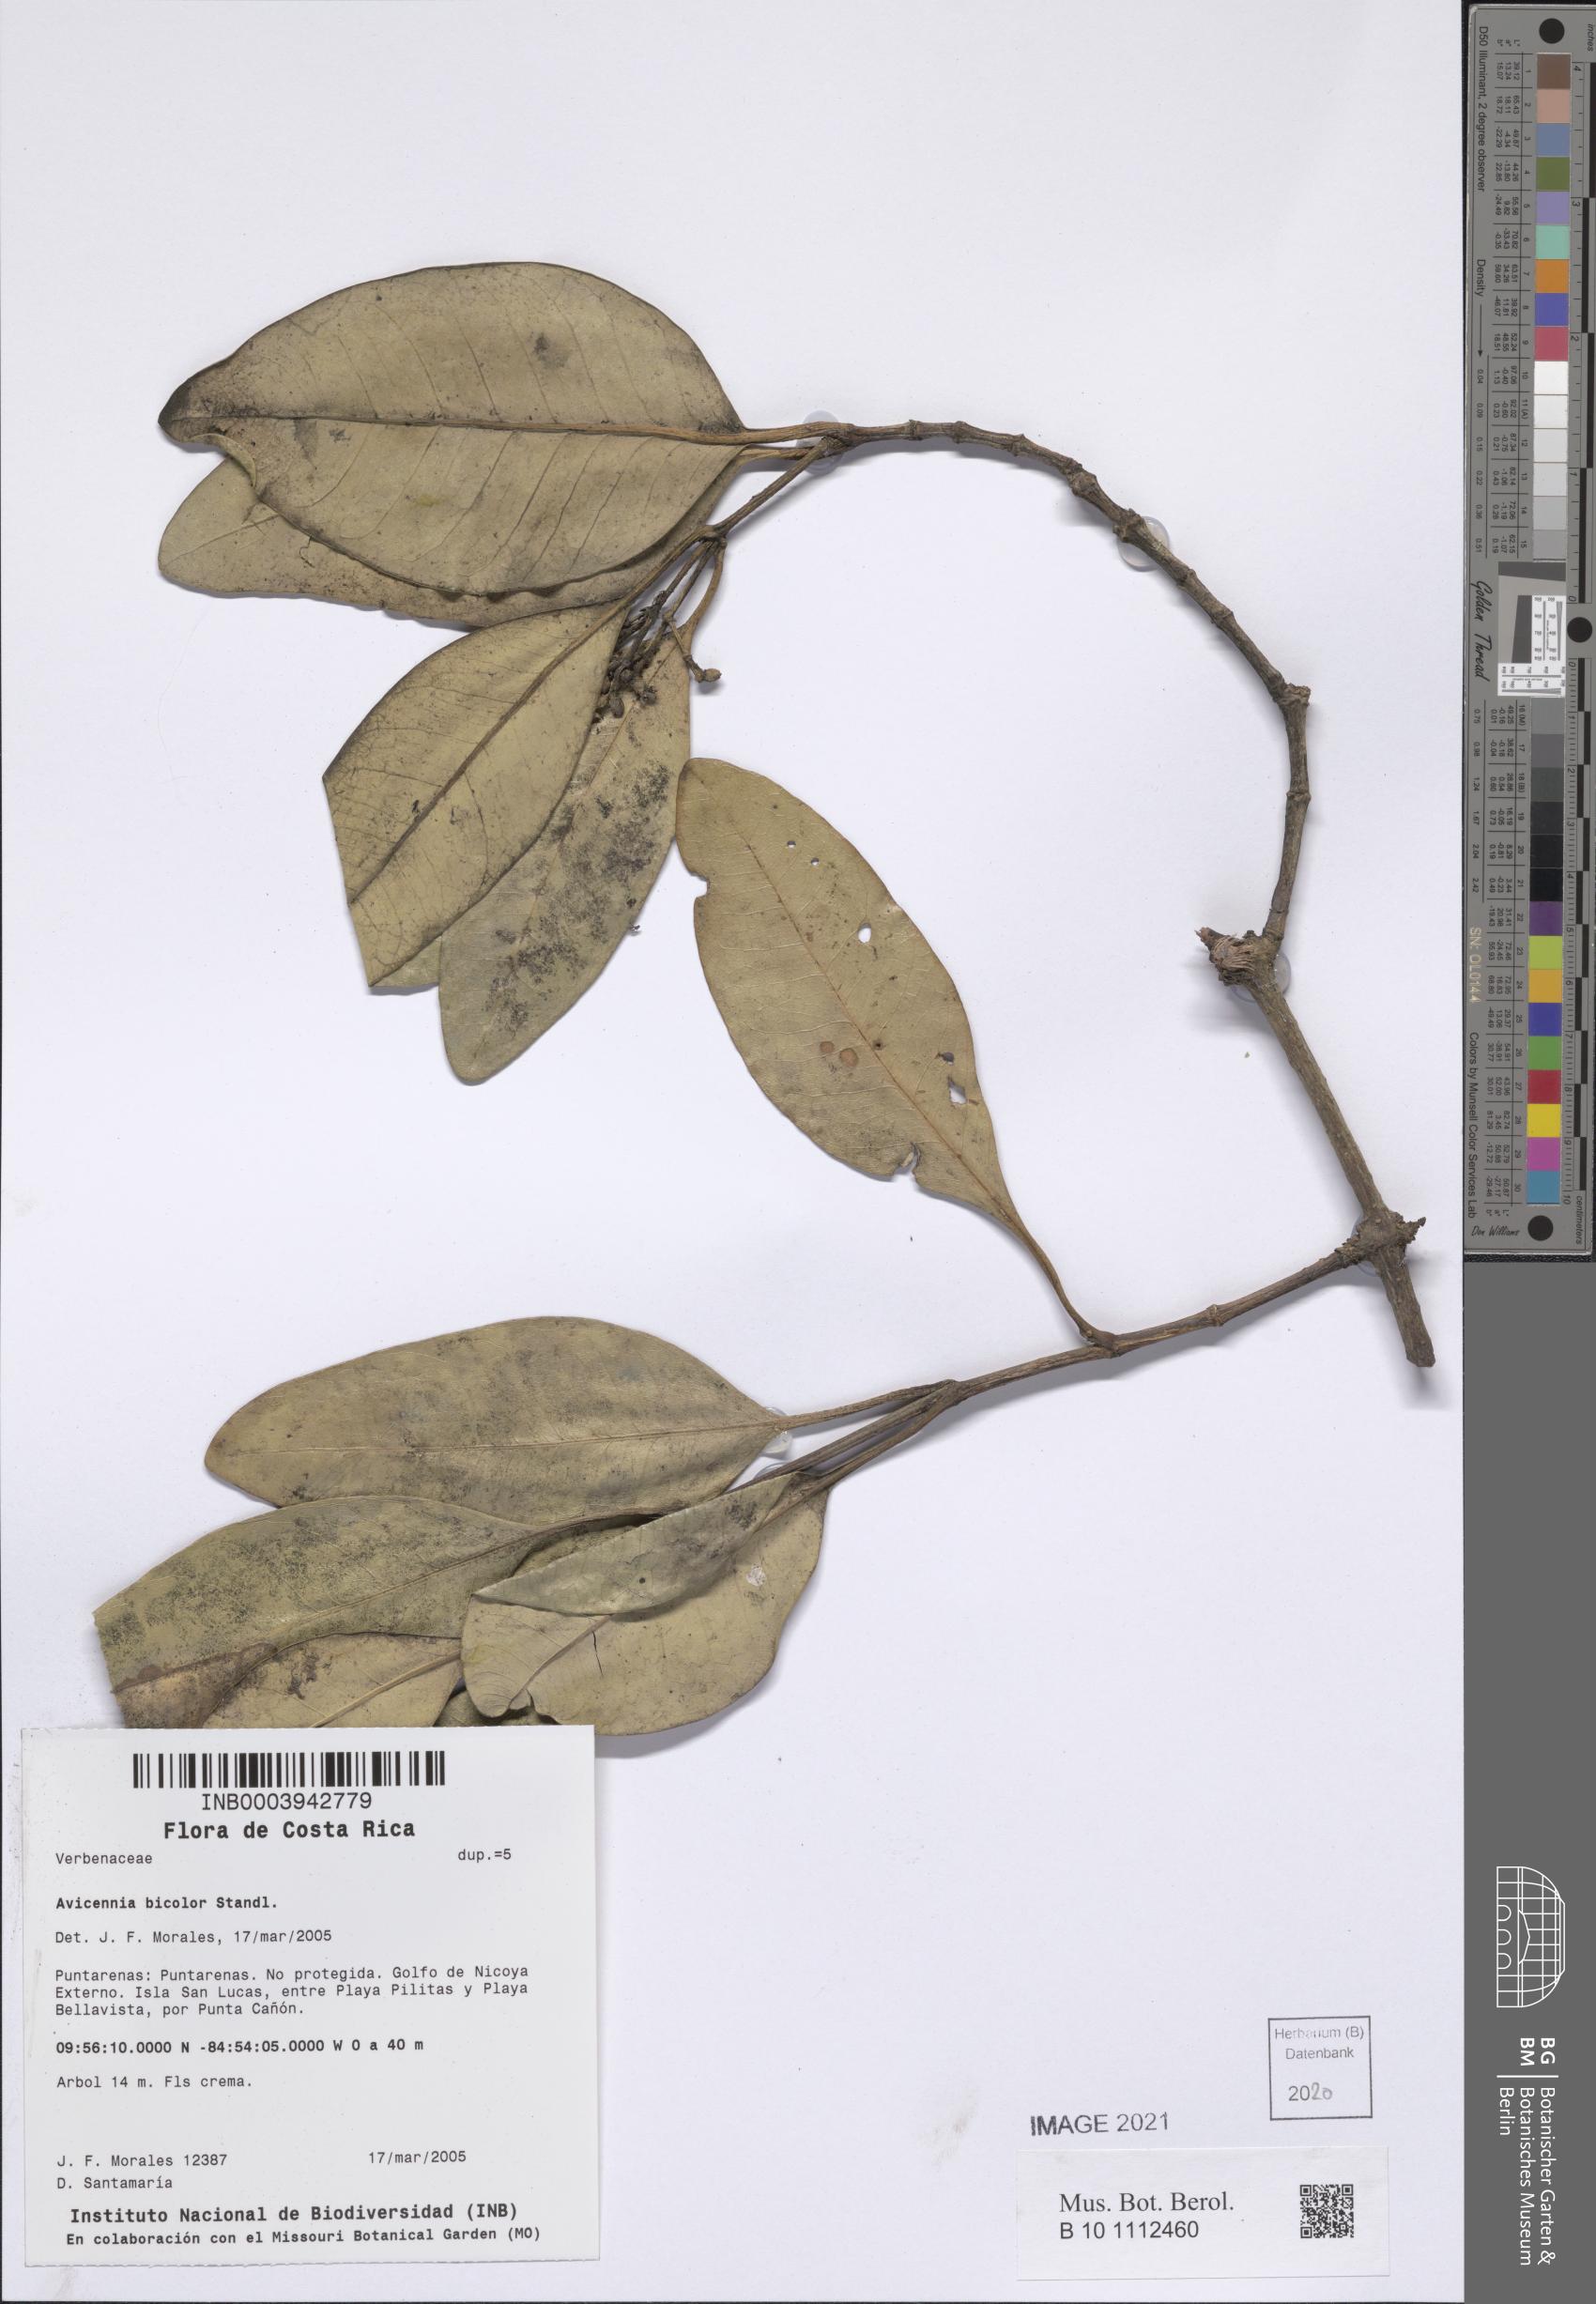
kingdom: Plantae
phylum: Tracheophyta
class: Magnoliopsida
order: Lamiales
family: Acanthaceae
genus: Avicennia
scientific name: Avicennia bicolor
